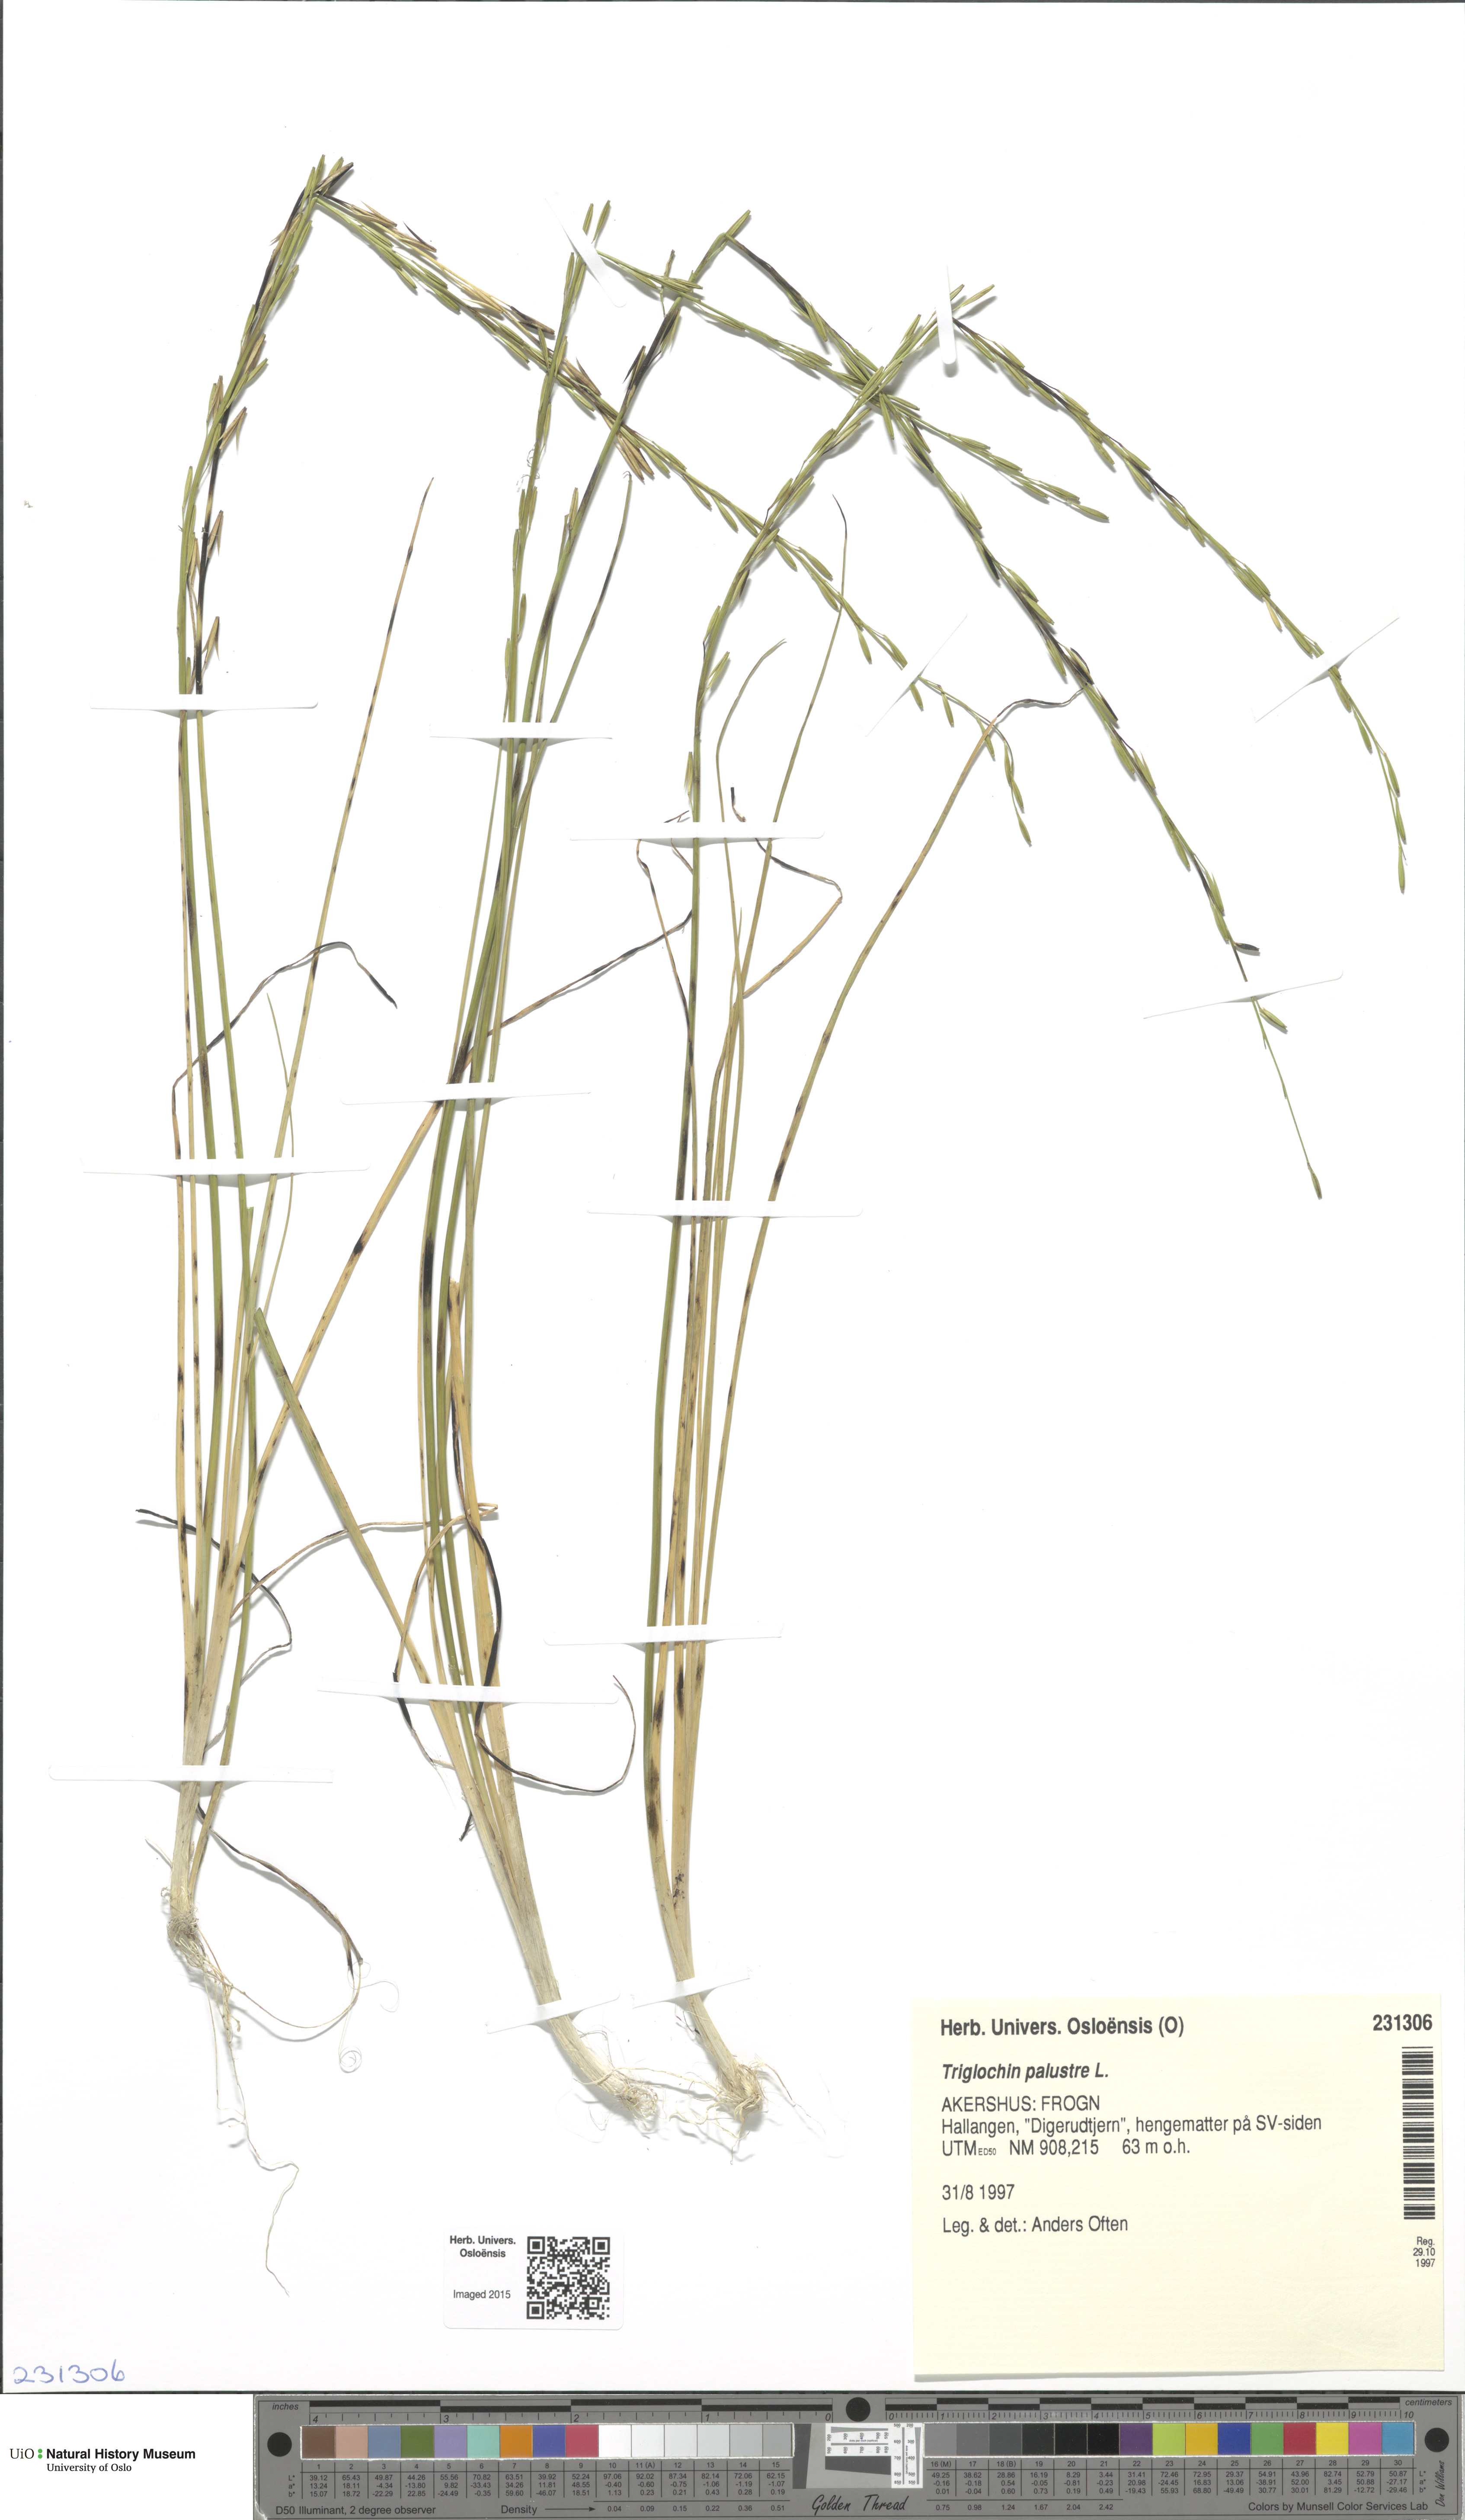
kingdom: Plantae
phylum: Tracheophyta
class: Liliopsida
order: Alismatales
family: Juncaginaceae
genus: Triglochin
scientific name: Triglochin palustris
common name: Marsh arrowgrass
